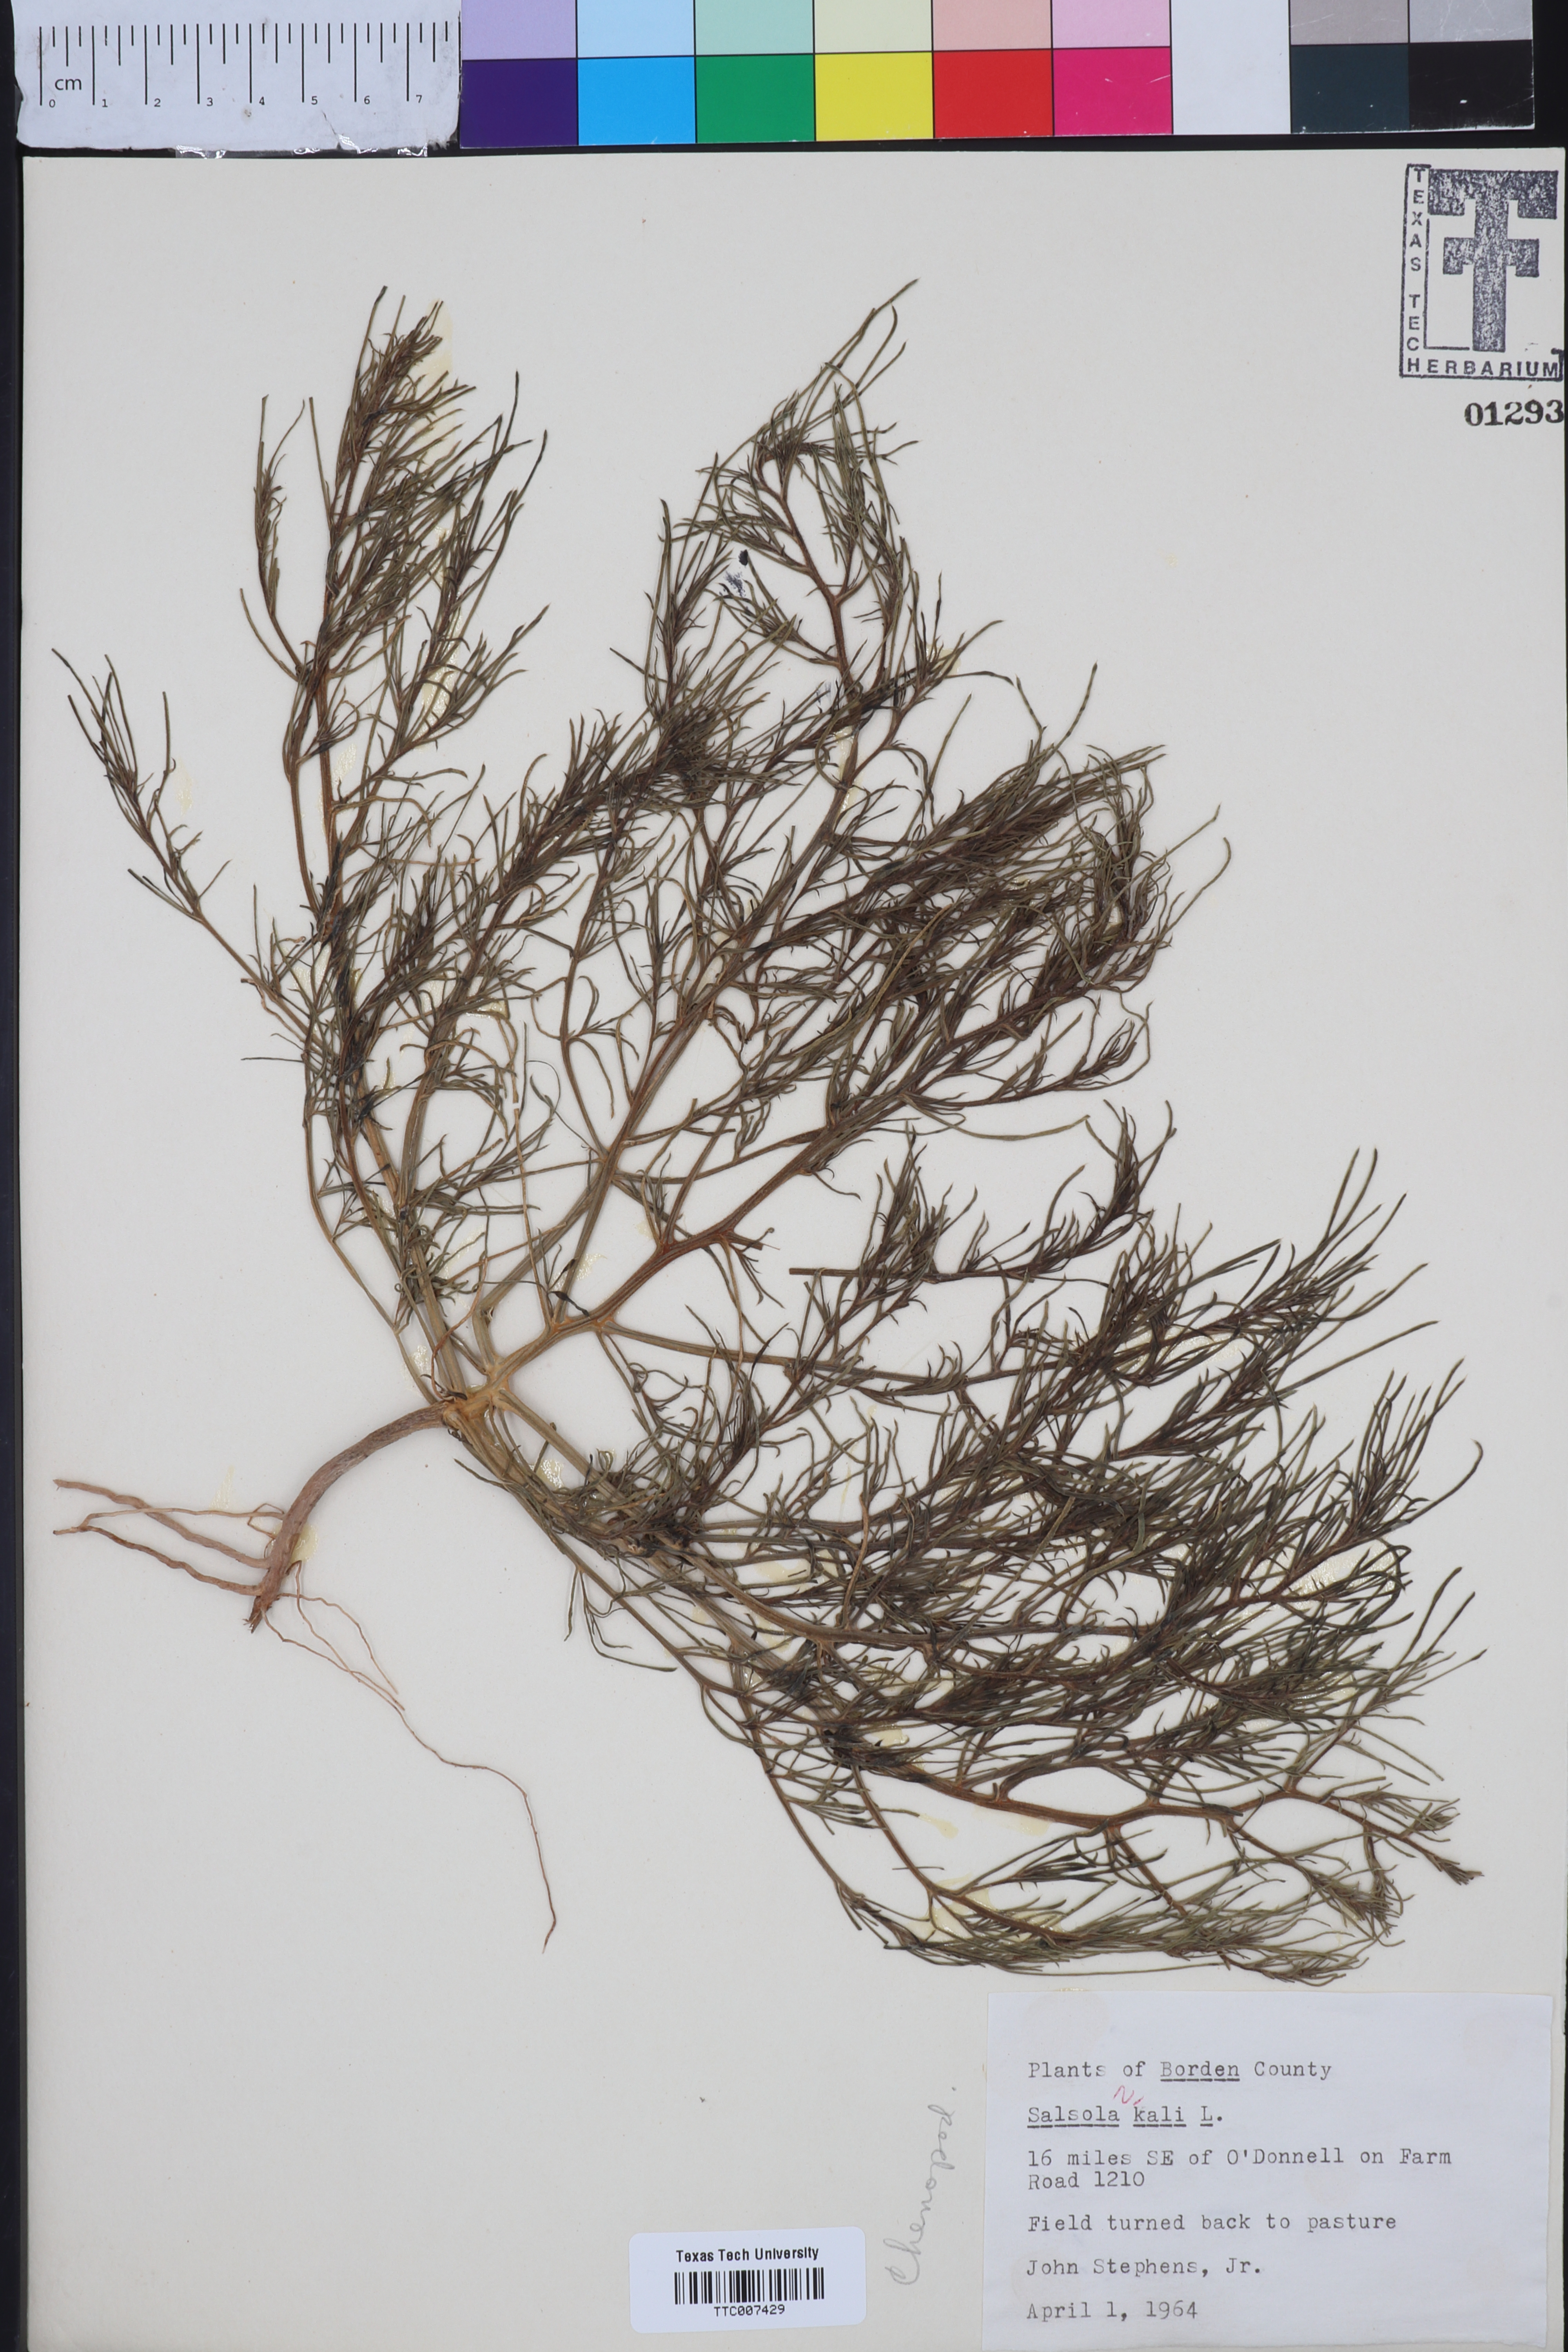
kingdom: Plantae
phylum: Tracheophyta
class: Magnoliopsida
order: Caryophyllales
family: Amaranthaceae
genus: Salsola
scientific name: Salsola kali
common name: Saltwort
